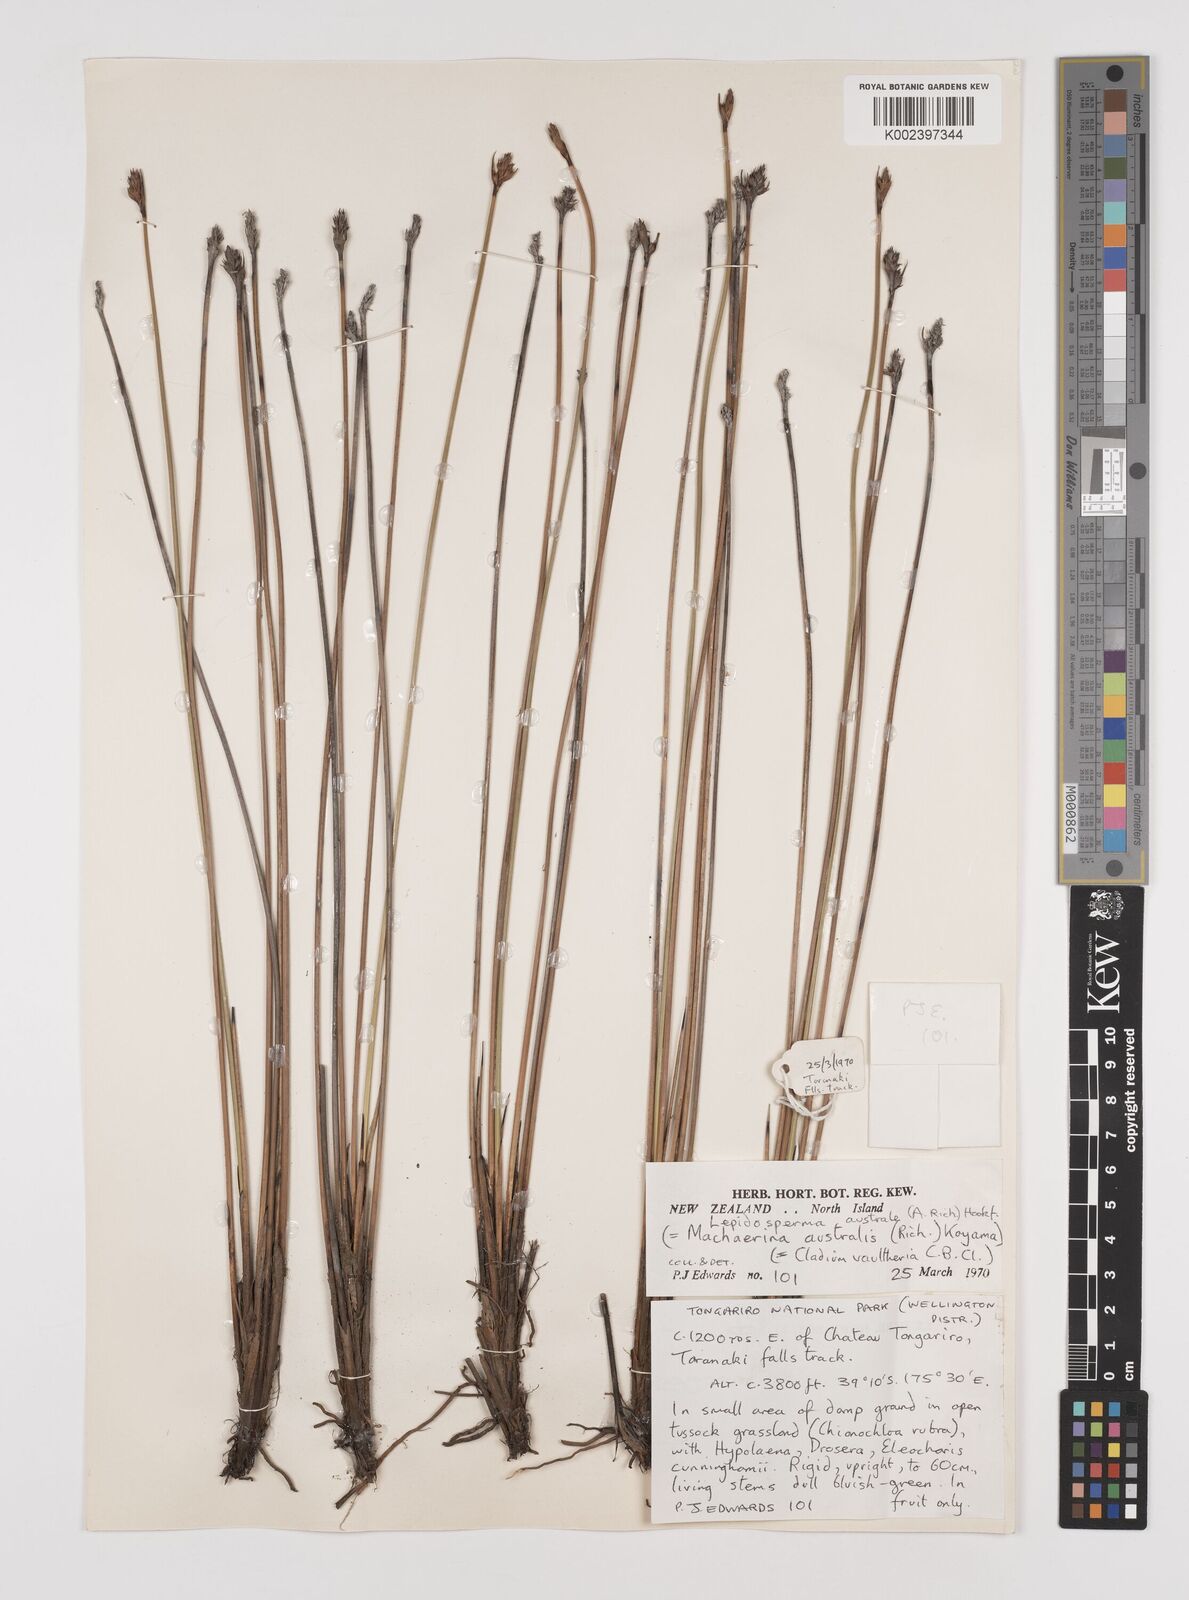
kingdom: Plantae
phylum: Tracheophyta
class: Liliopsida
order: Poales
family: Cyperaceae
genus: Lepidosperma
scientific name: Lepidosperma australe
